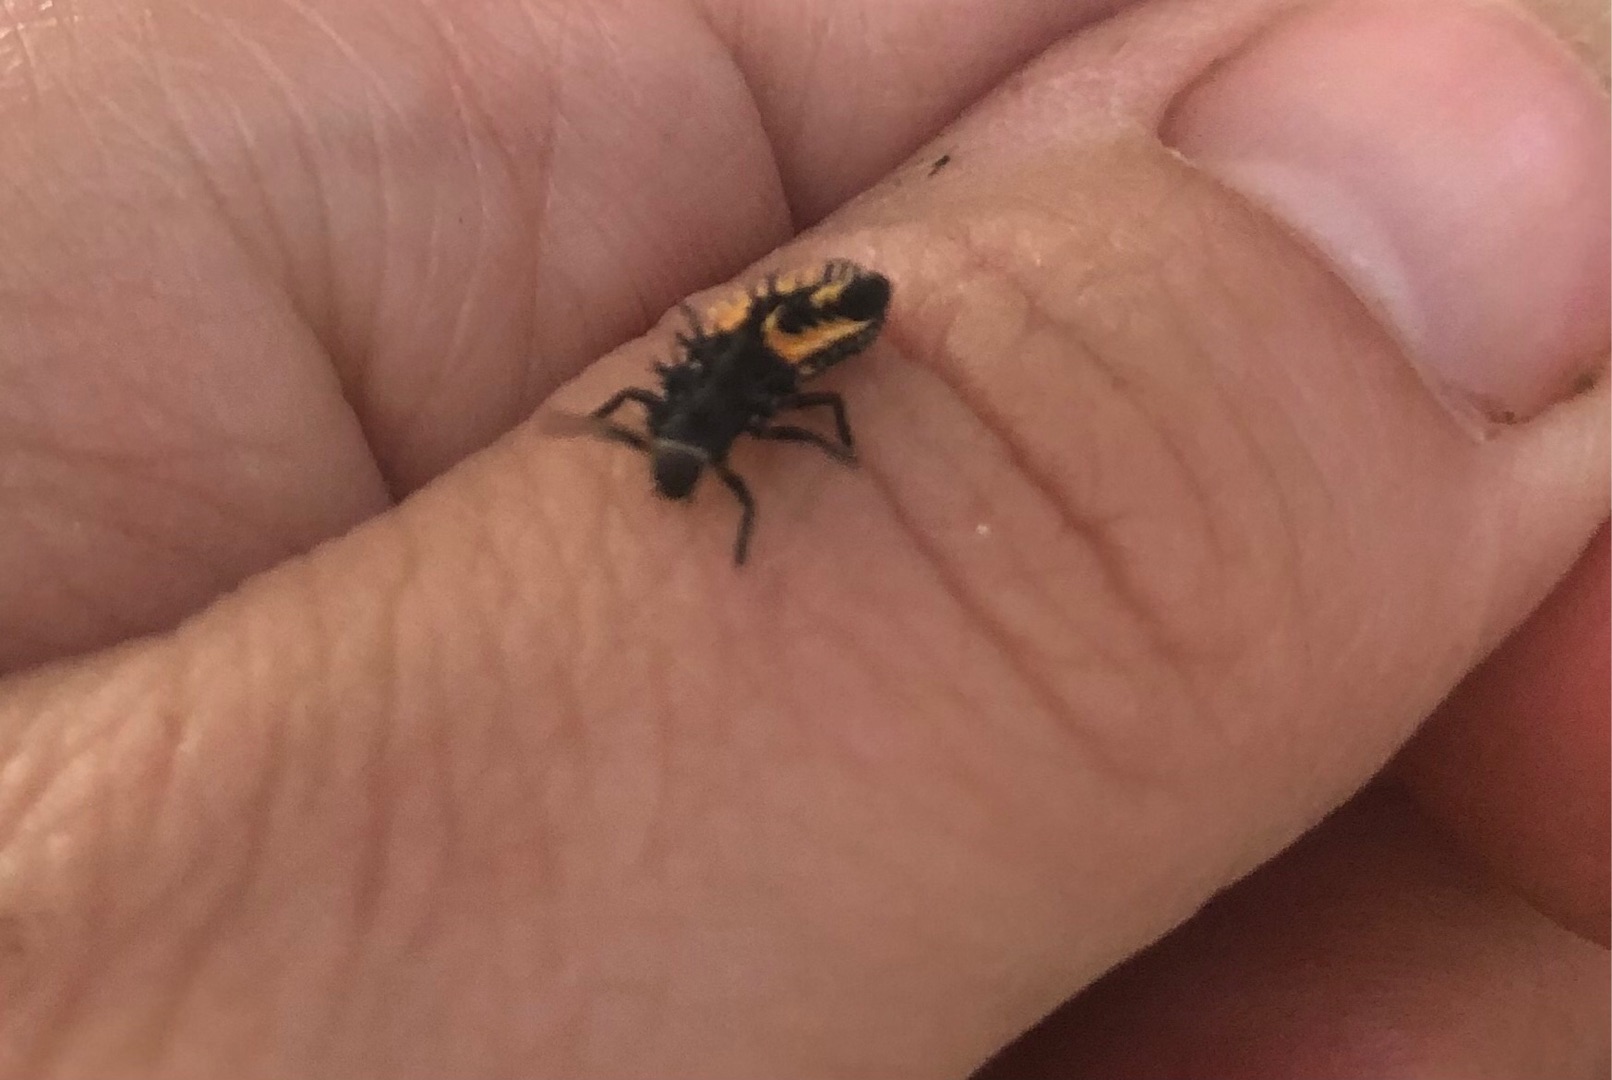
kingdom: Animalia
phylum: Arthropoda
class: Insecta
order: Coleoptera
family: Coccinellidae
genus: Harmonia
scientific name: Harmonia axyridis
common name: Harlekinmariehøne
